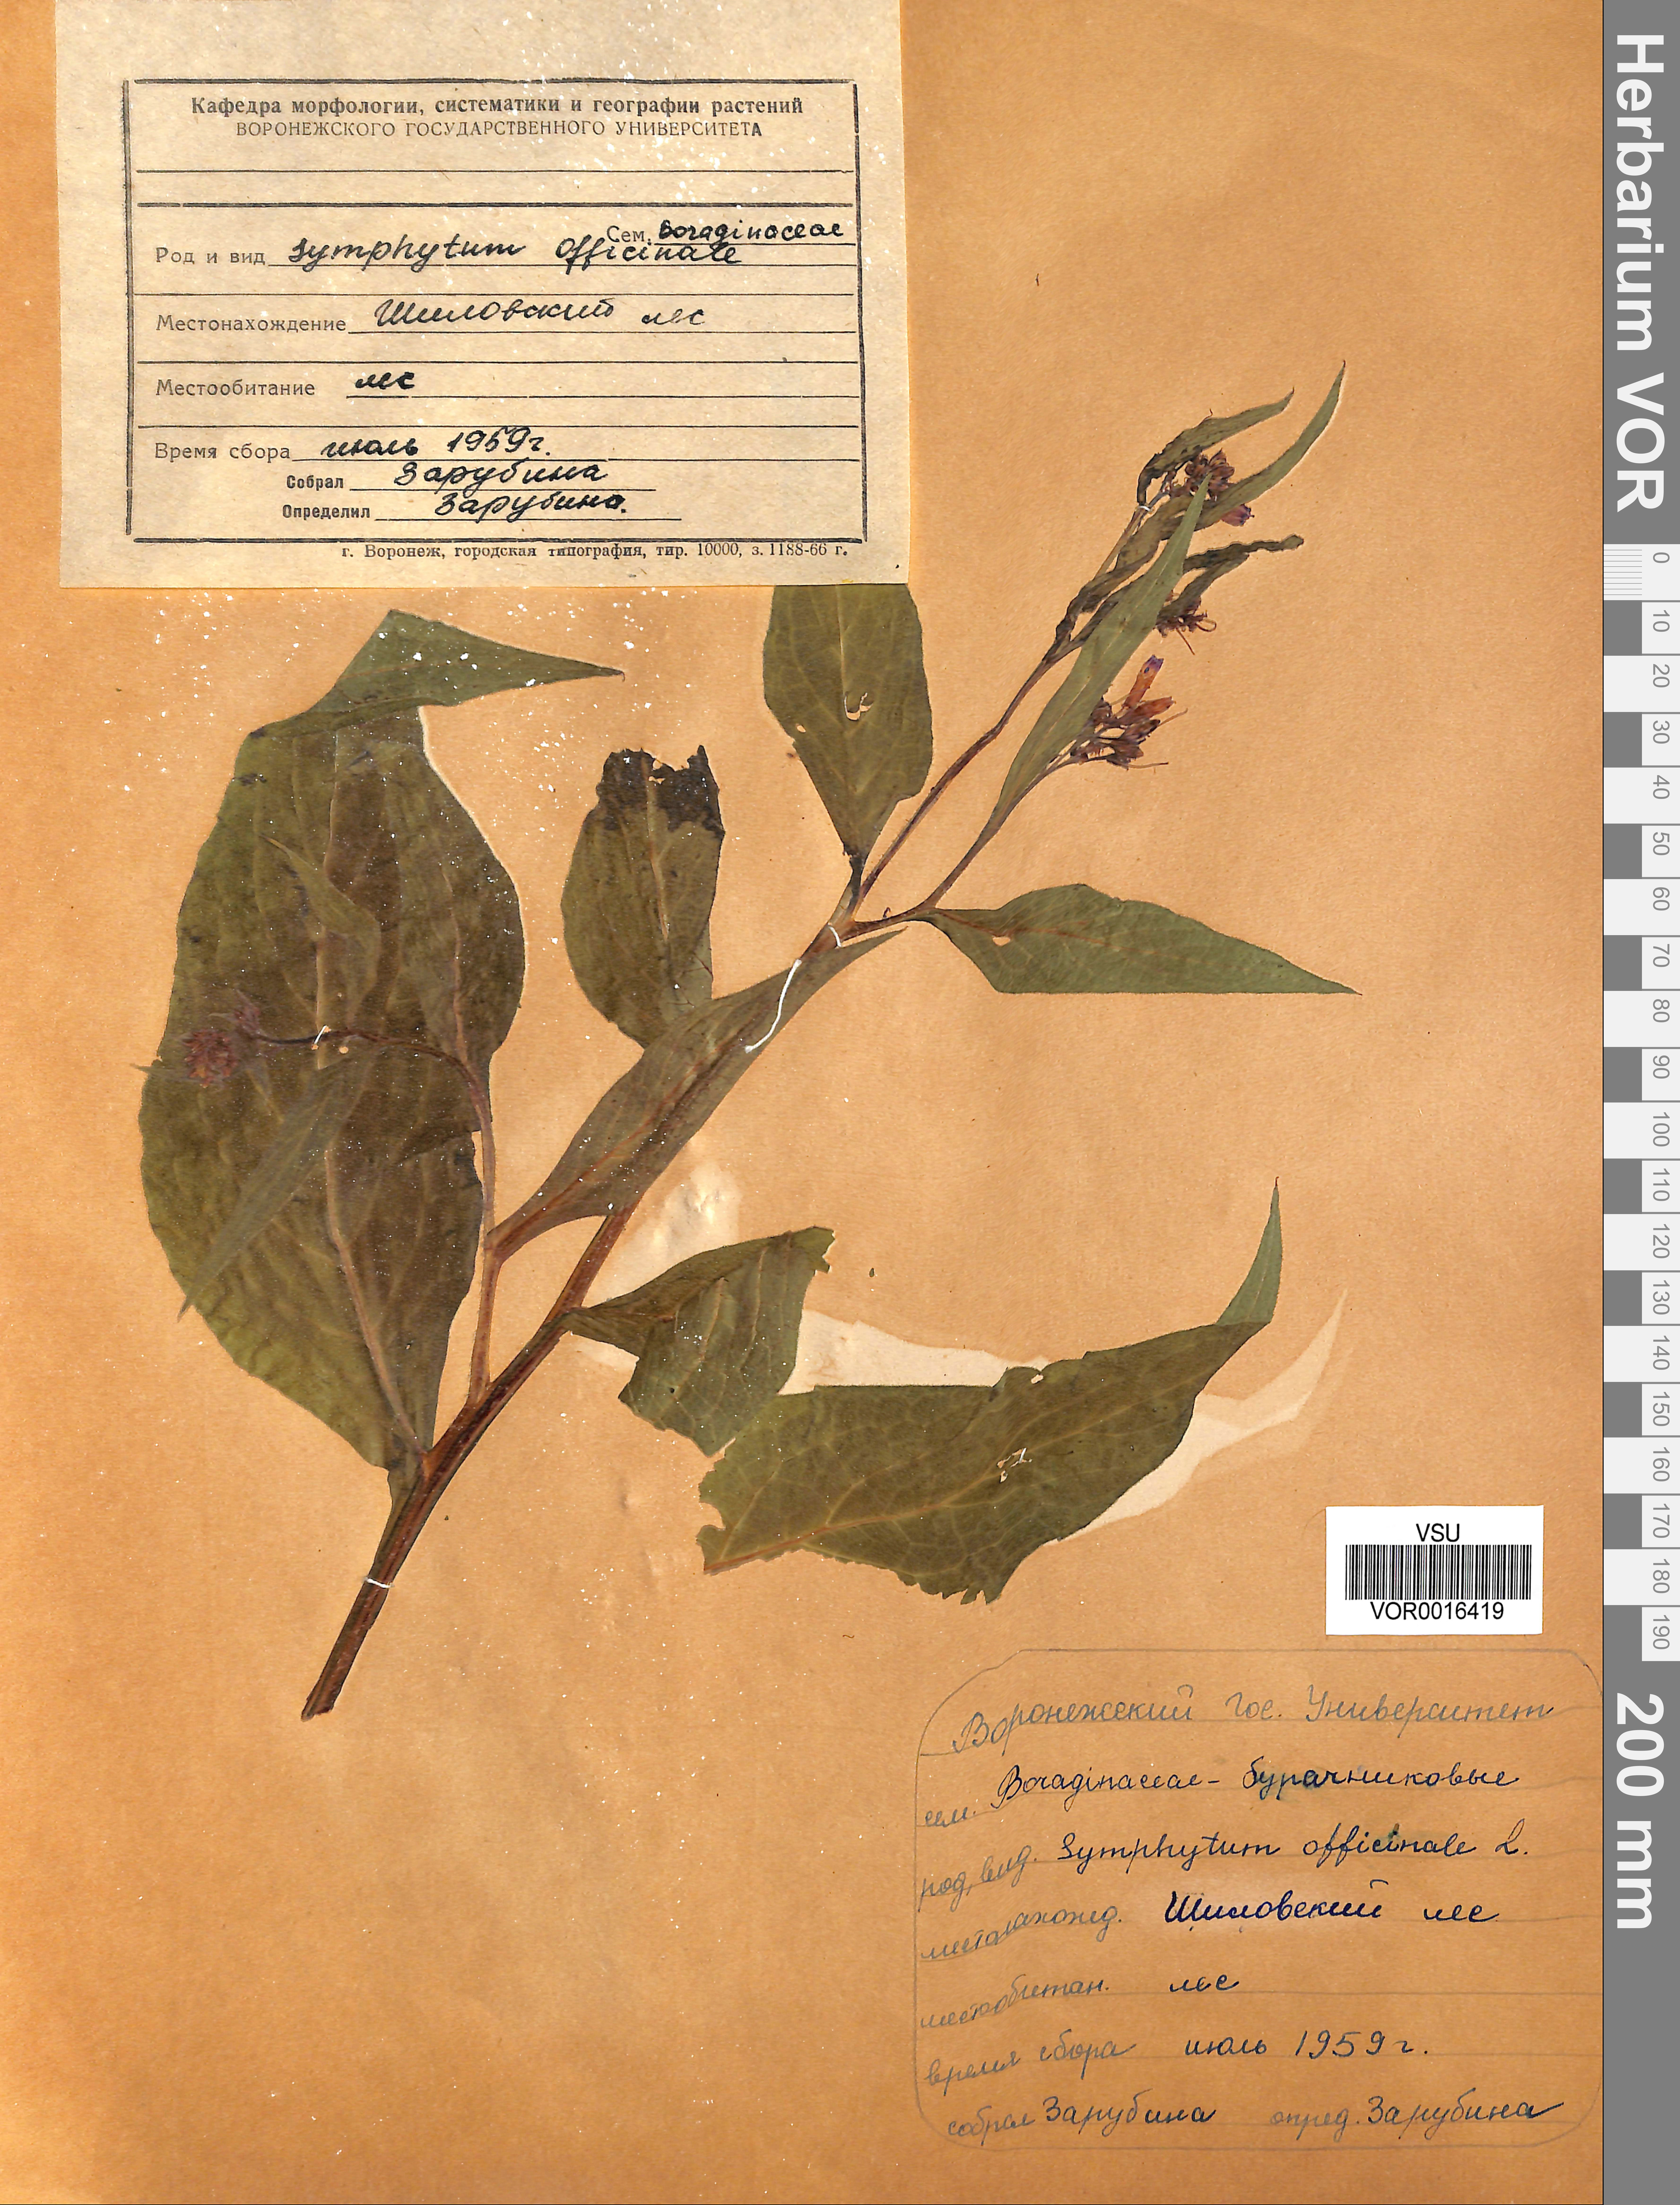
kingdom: Plantae
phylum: Tracheophyta
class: Magnoliopsida
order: Boraginales
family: Boraginaceae
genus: Symphytum
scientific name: Symphytum officinale
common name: Common comfrey
